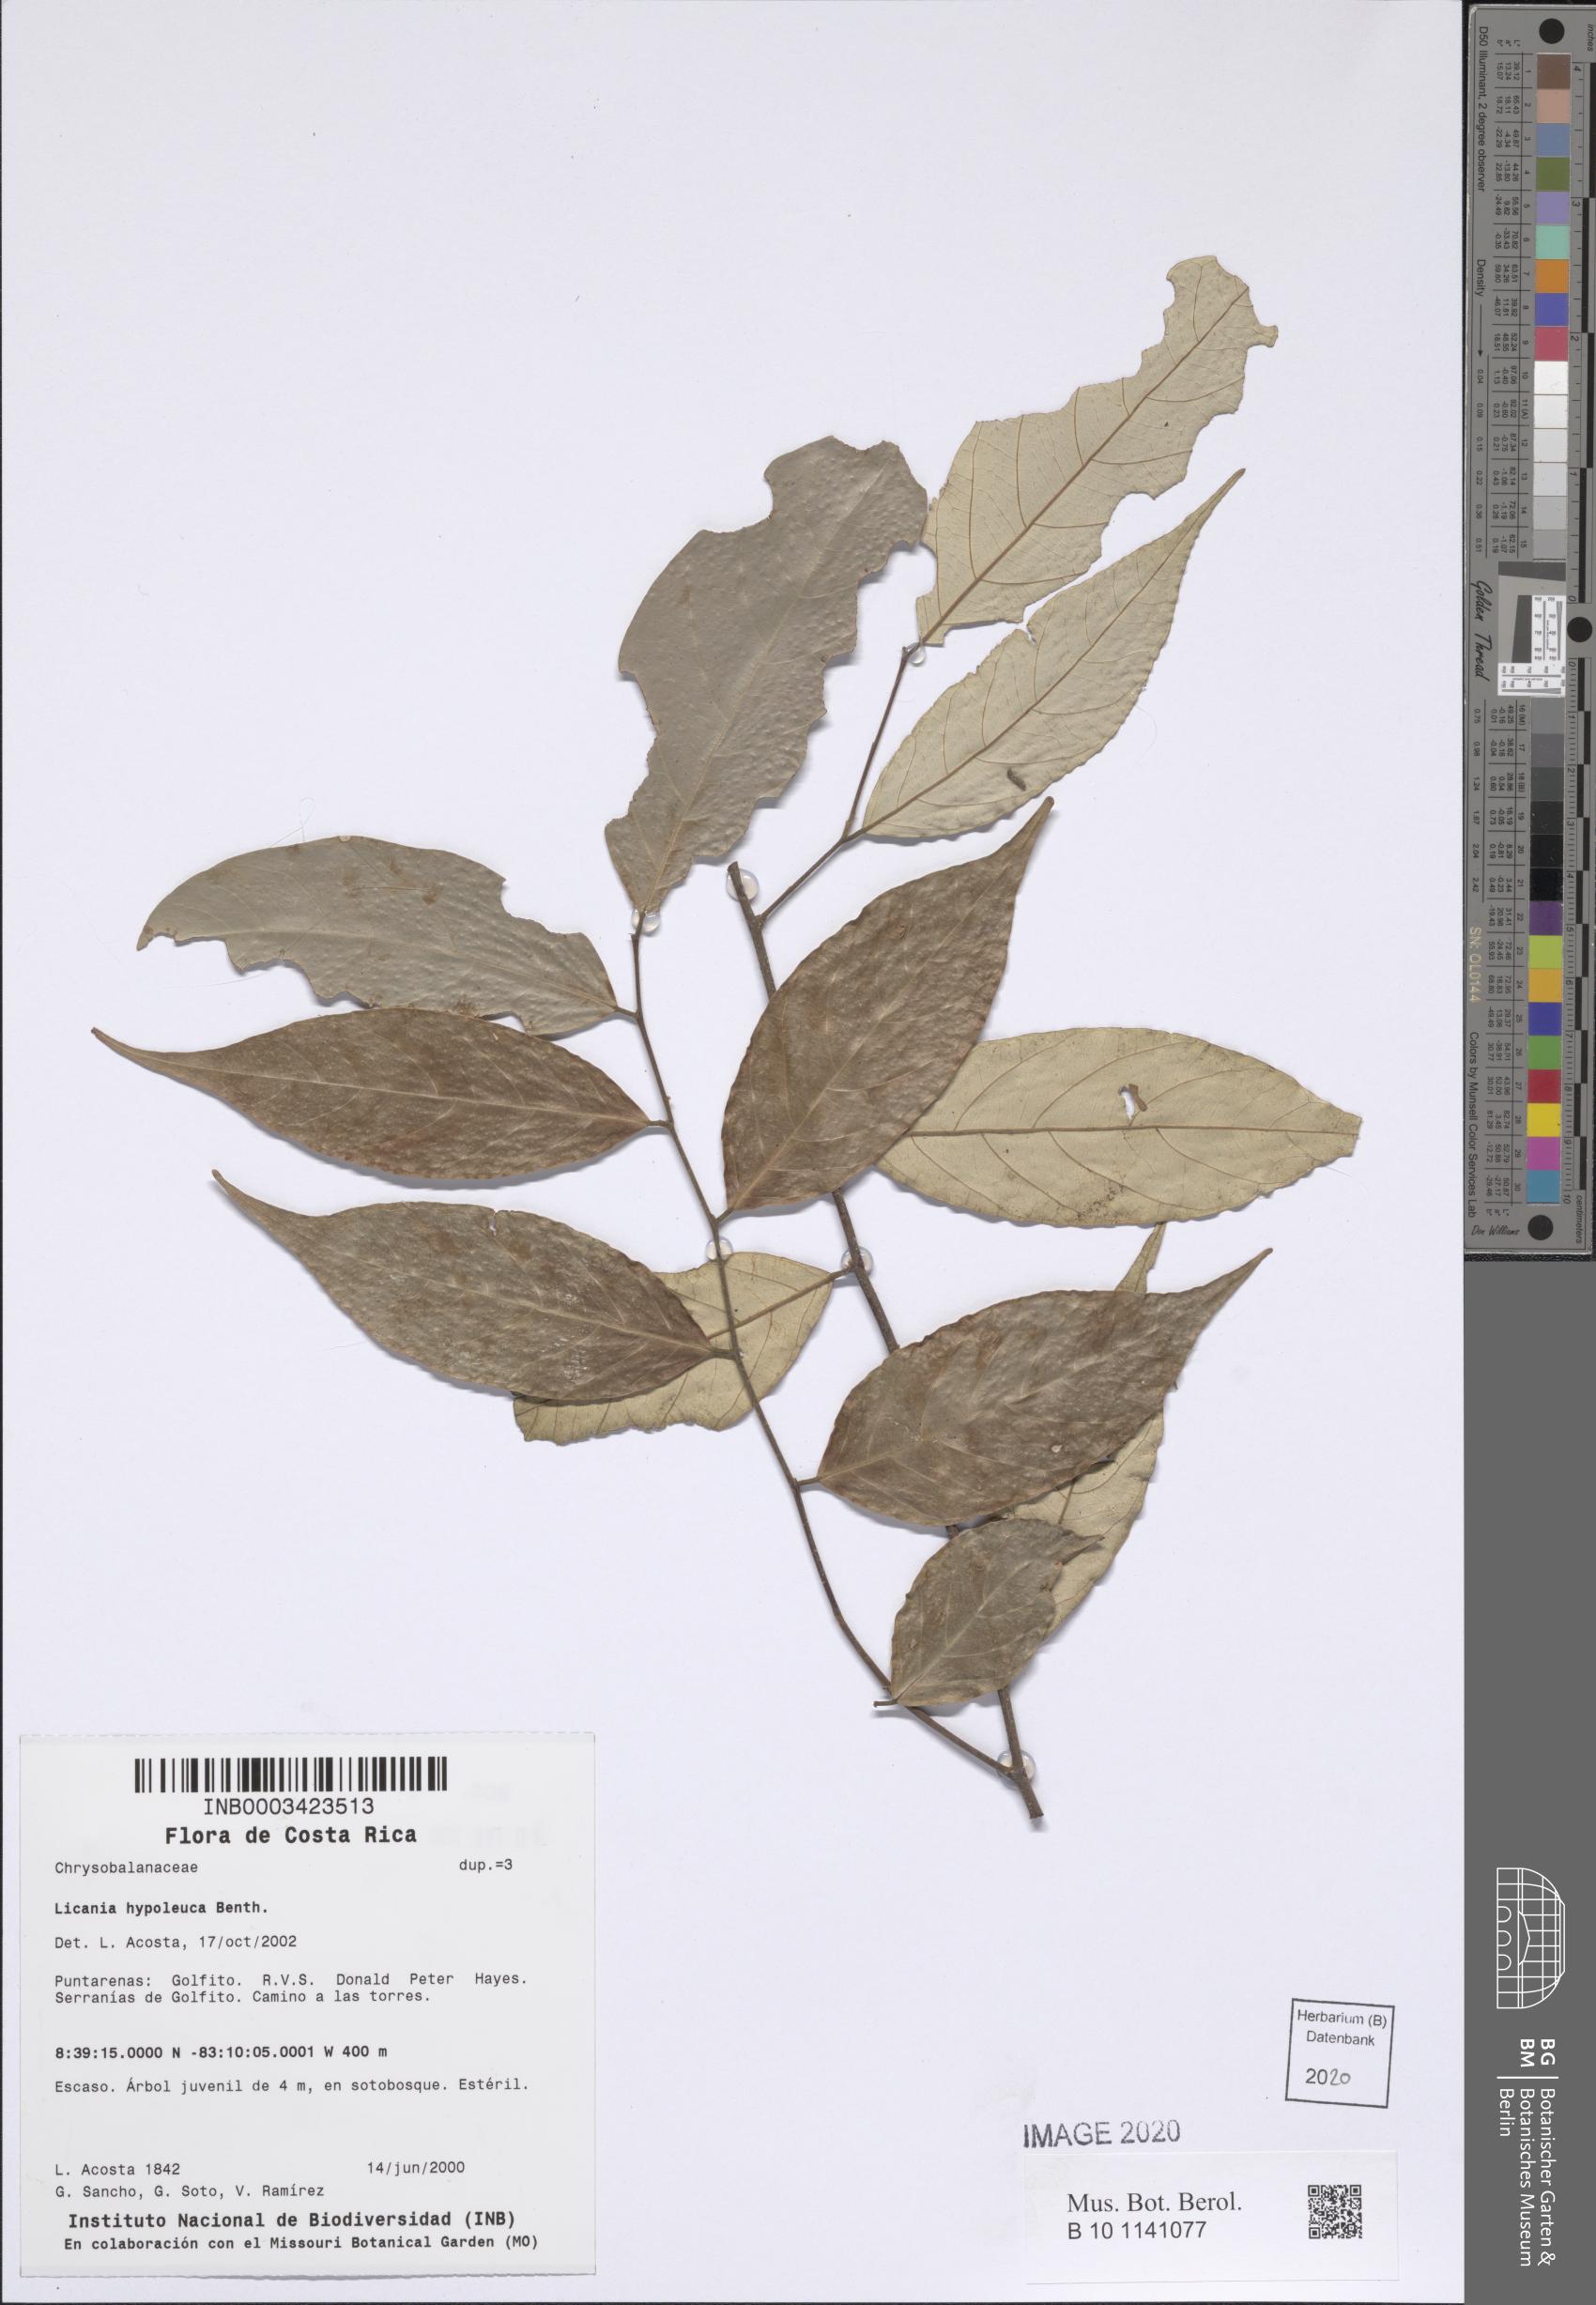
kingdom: Plantae
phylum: Tracheophyta
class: Magnoliopsida
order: Malpighiales
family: Chrysobalanaceae
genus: Licania
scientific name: Licania hypoleuca
